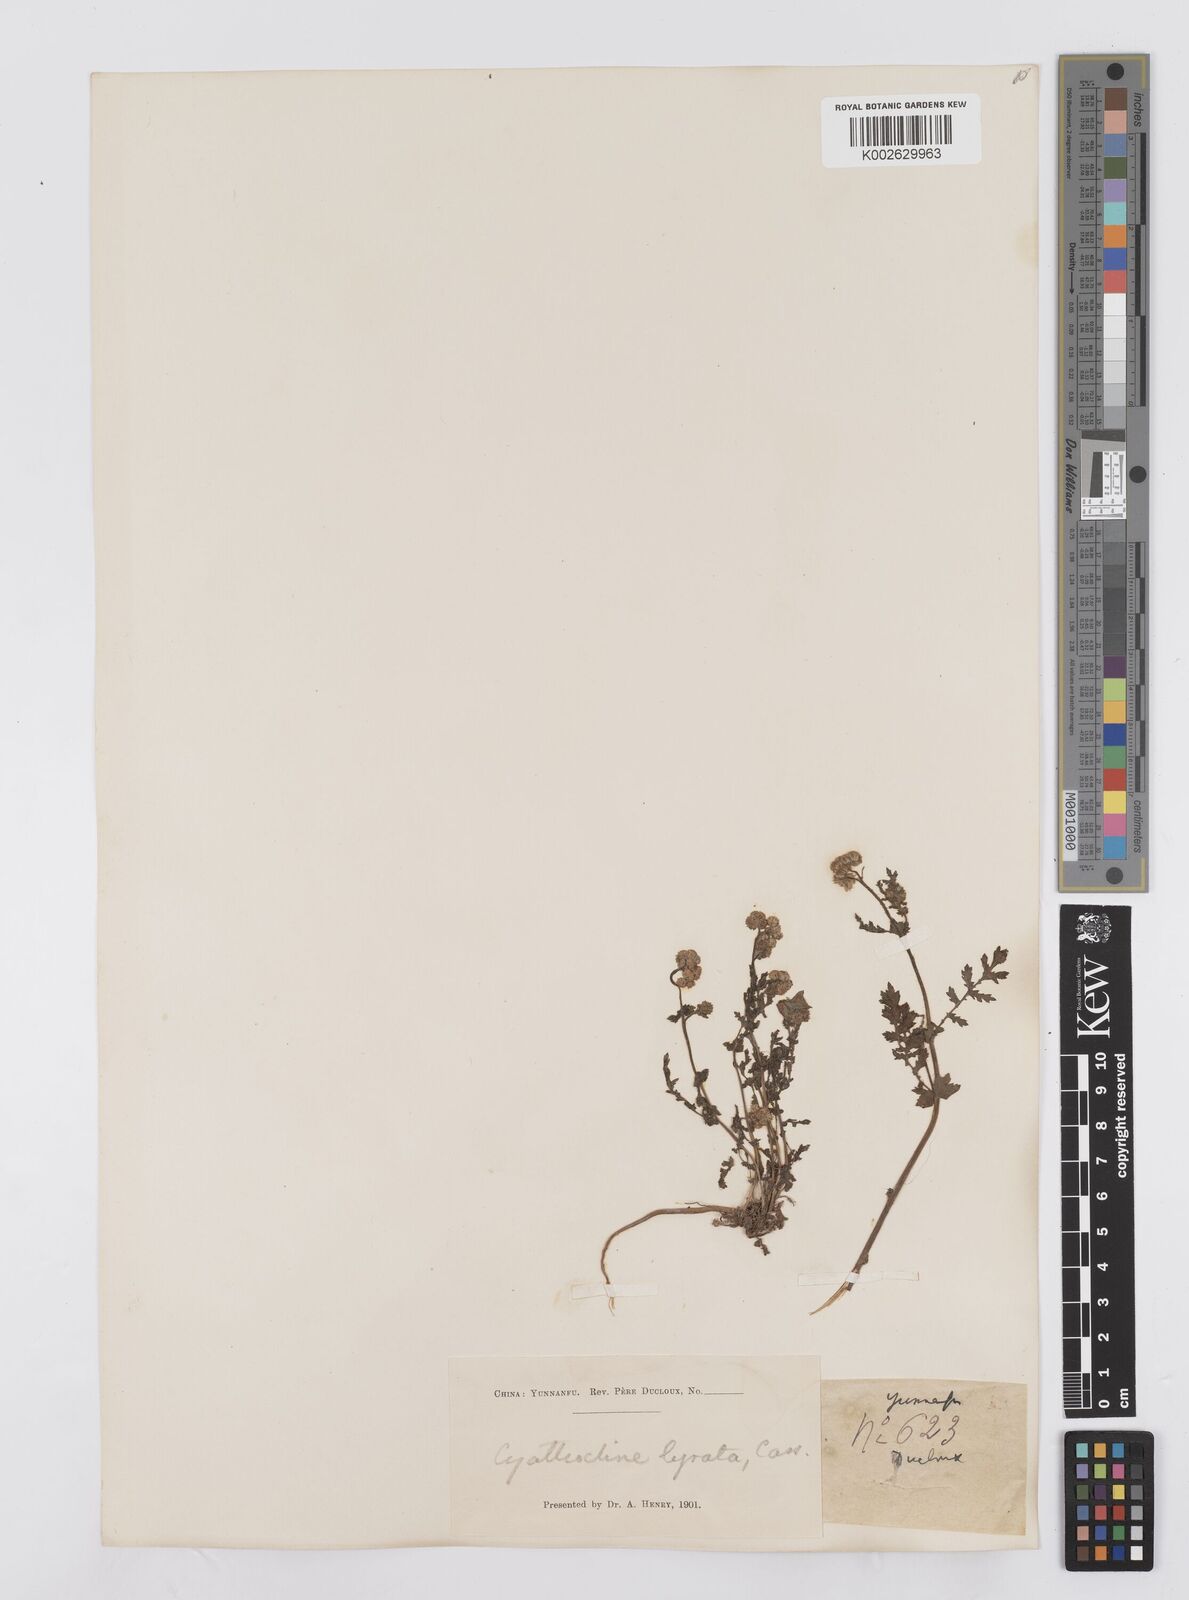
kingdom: Plantae
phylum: Tracheophyta
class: Magnoliopsida
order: Asterales
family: Asteraceae
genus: Cyathocline
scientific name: Cyathocline purpurea
